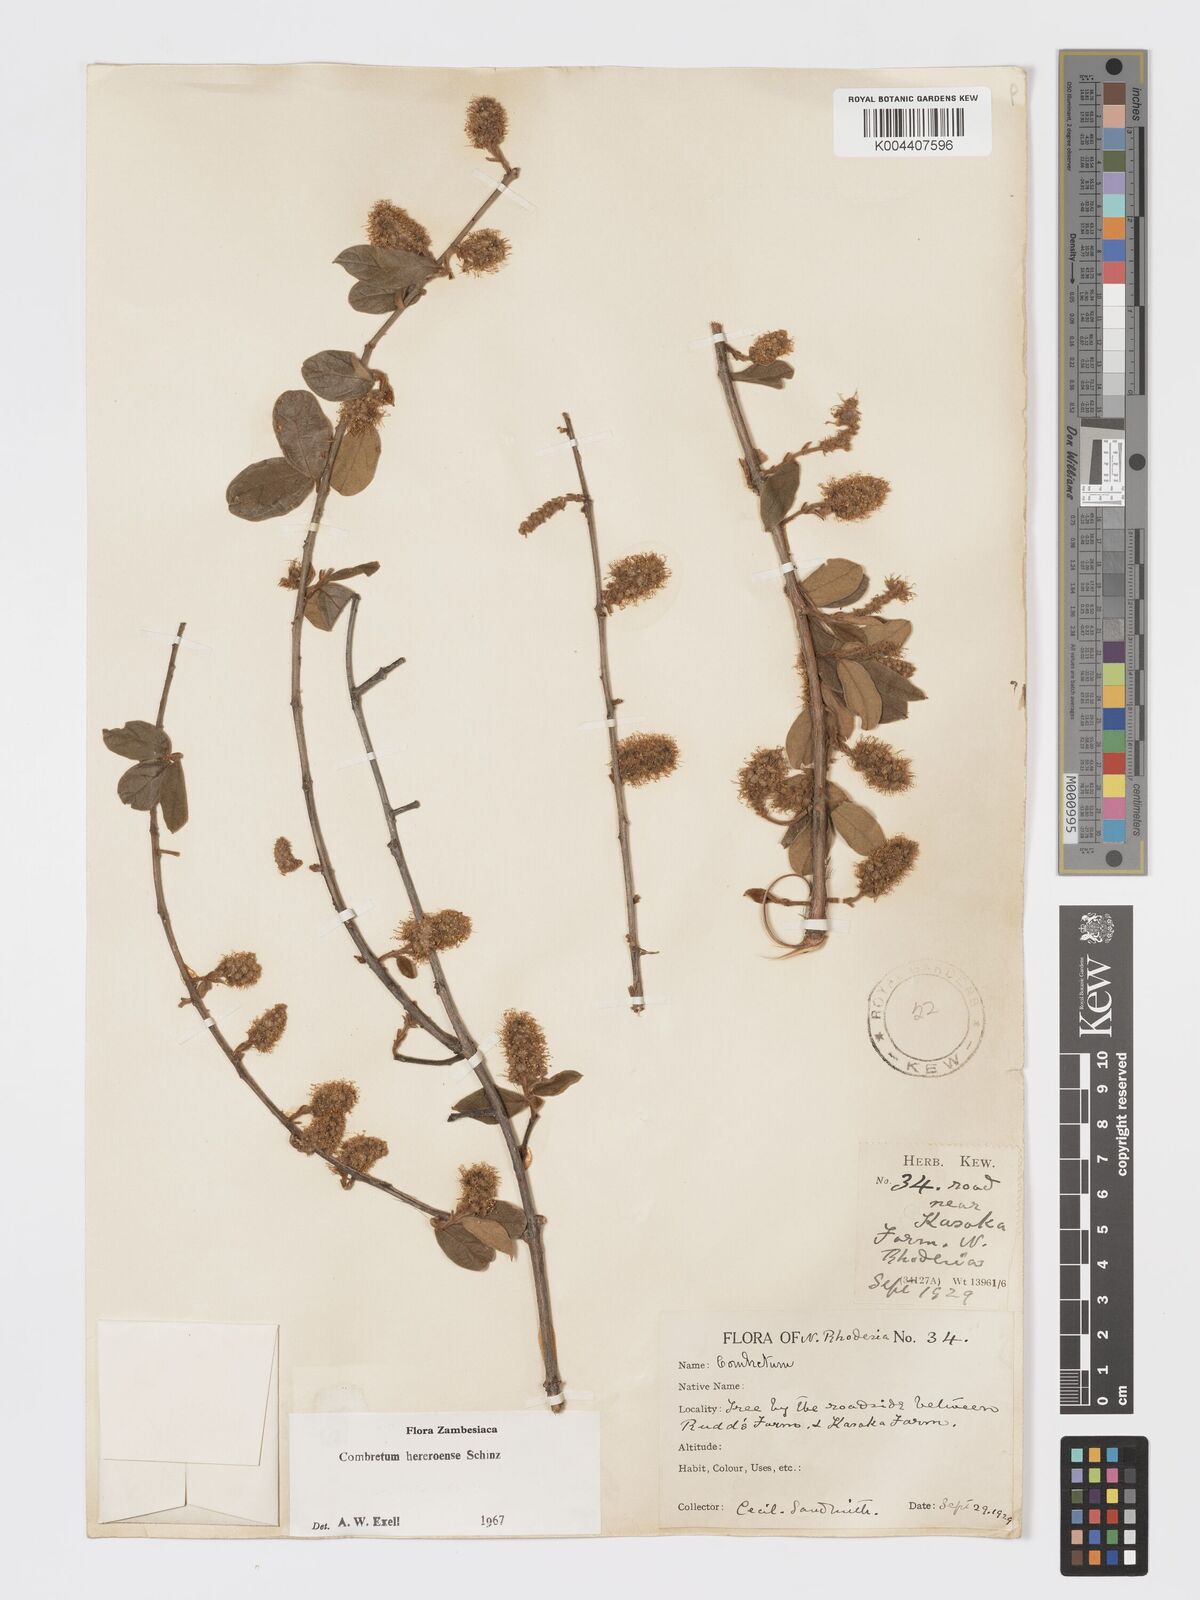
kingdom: Plantae
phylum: Tracheophyta
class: Magnoliopsida
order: Myrtales
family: Combretaceae
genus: Combretum
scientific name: Combretum hereroense
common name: Russet bushwillow
